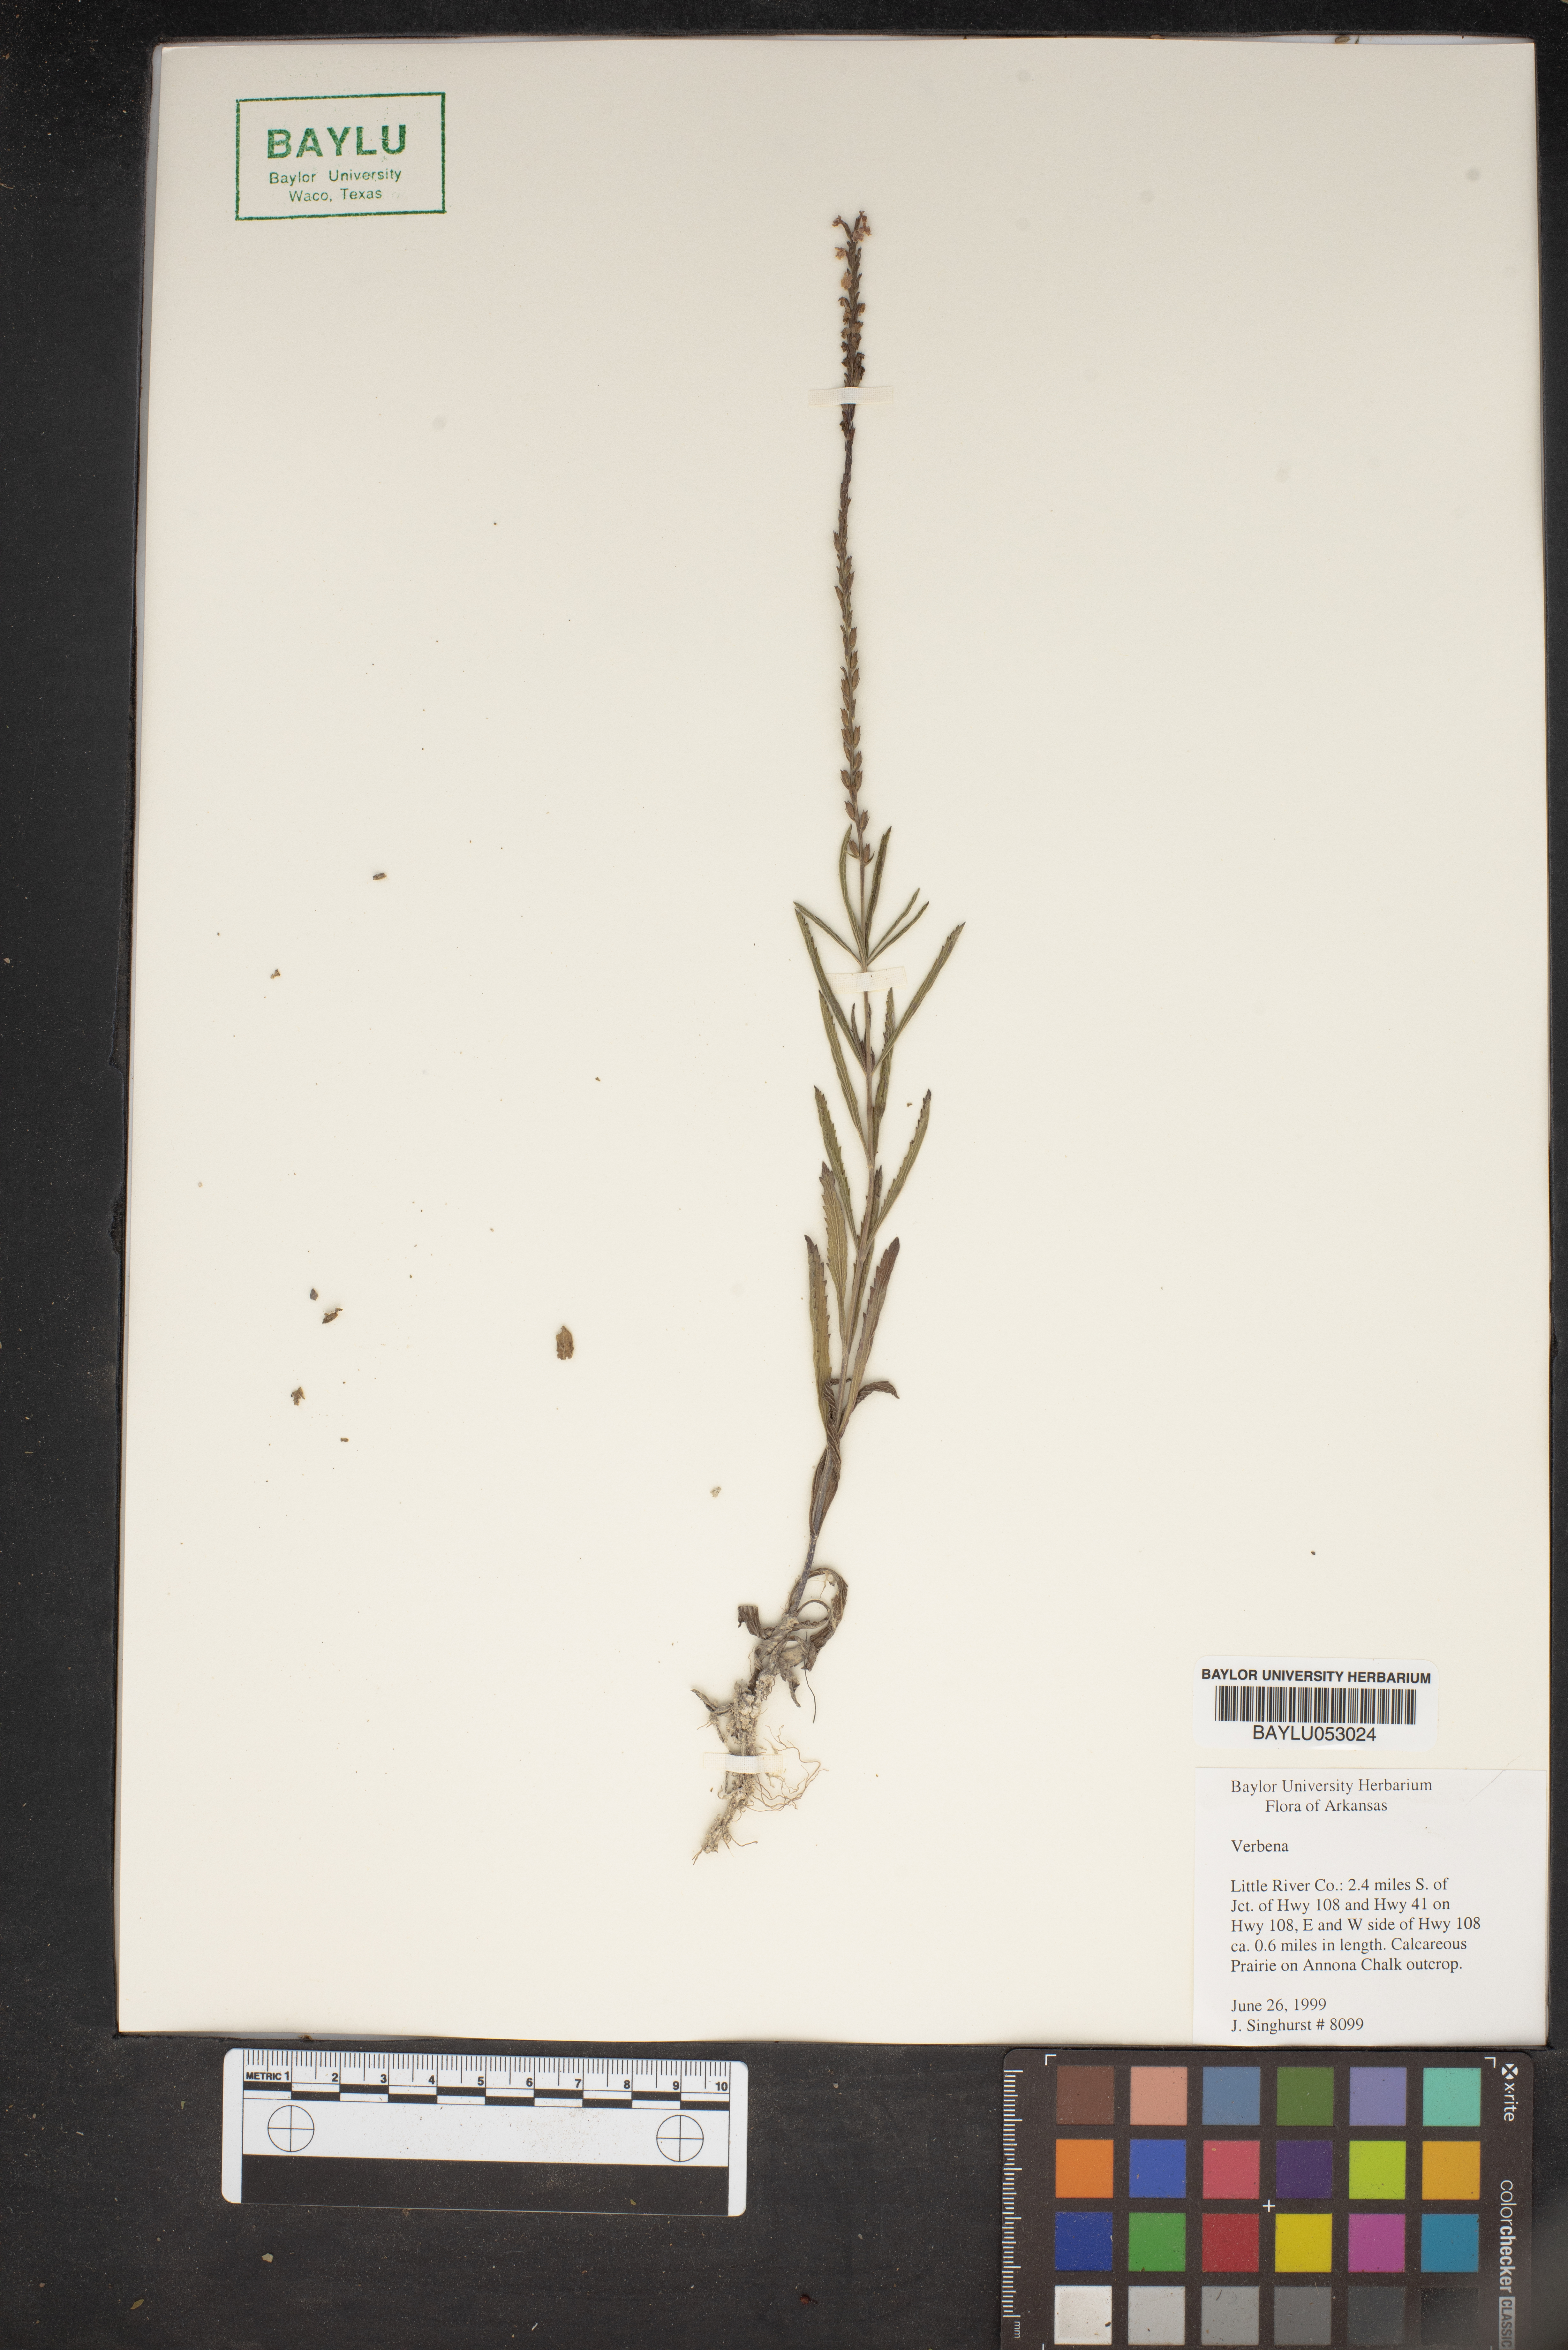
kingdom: Plantae
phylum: Tracheophyta
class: Magnoliopsida
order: Lamiales
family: Verbenaceae
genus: Verbena
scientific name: Verbena
